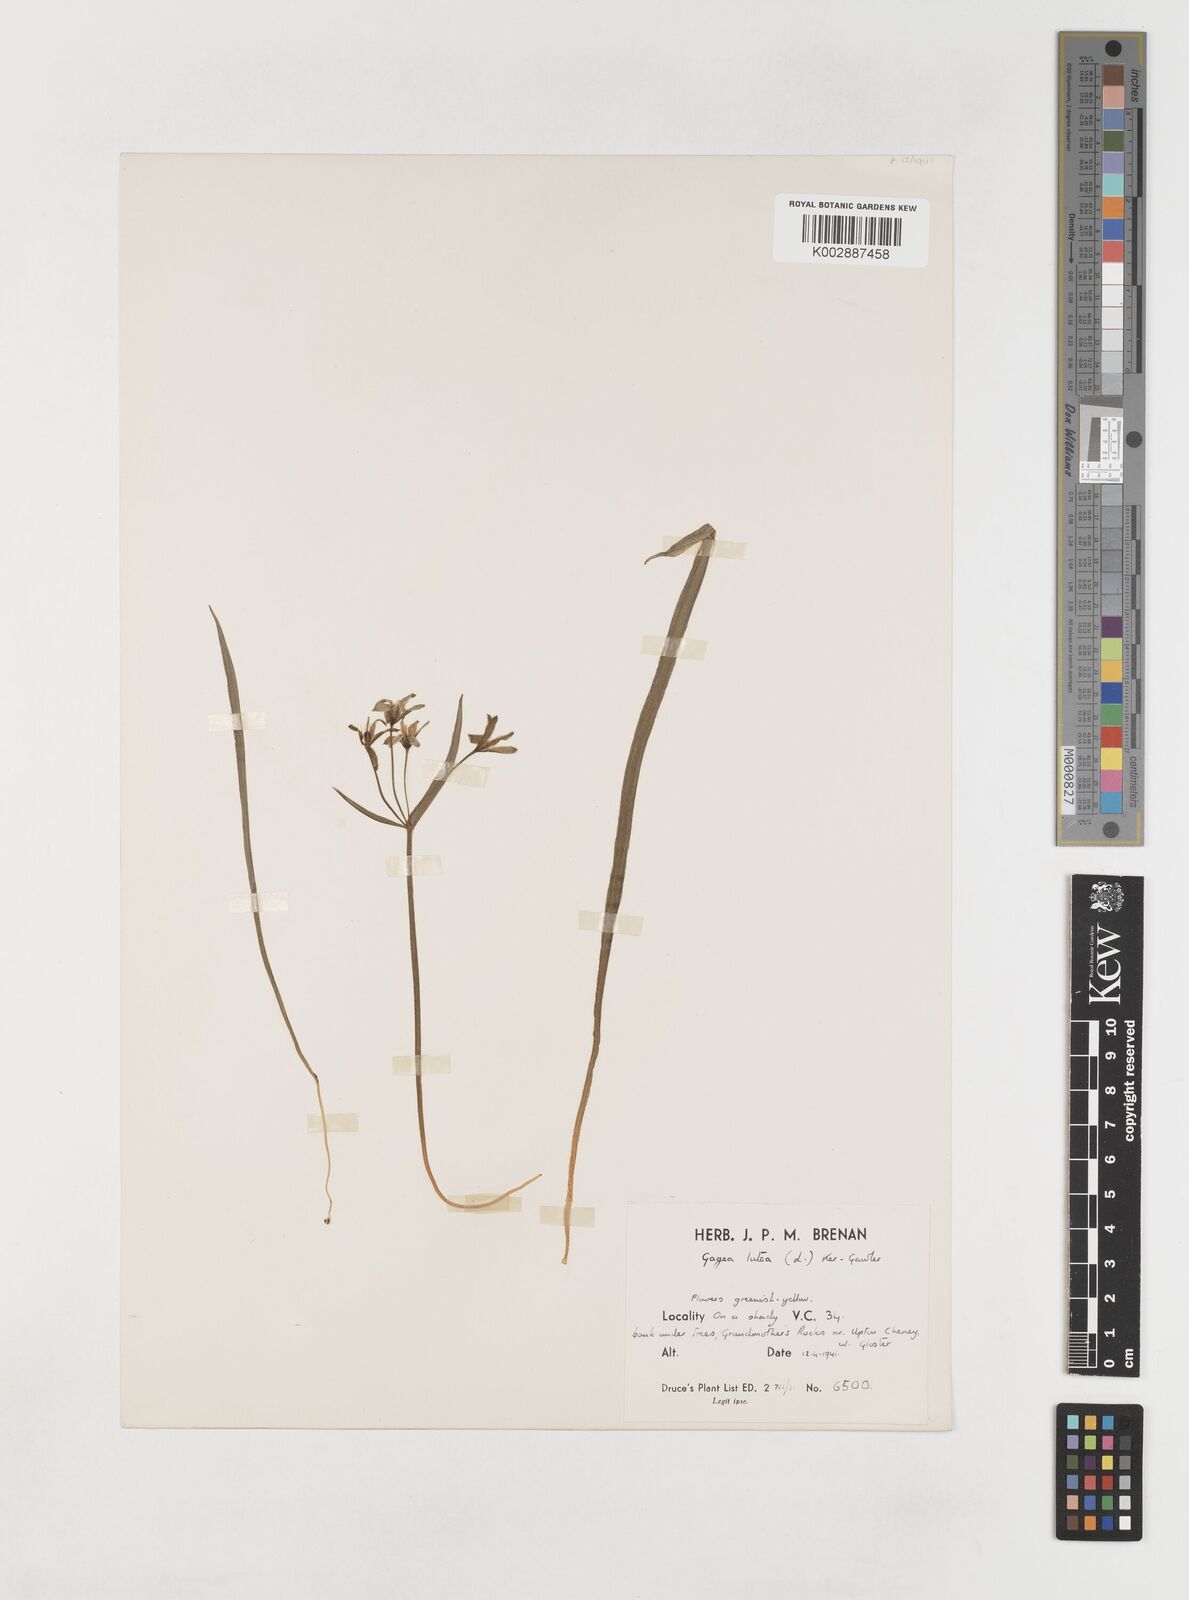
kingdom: Plantae
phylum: Tracheophyta
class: Liliopsida
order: Liliales
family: Liliaceae
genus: Gagea
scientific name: Gagea lutea
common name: Yellow star-of-bethlehem
